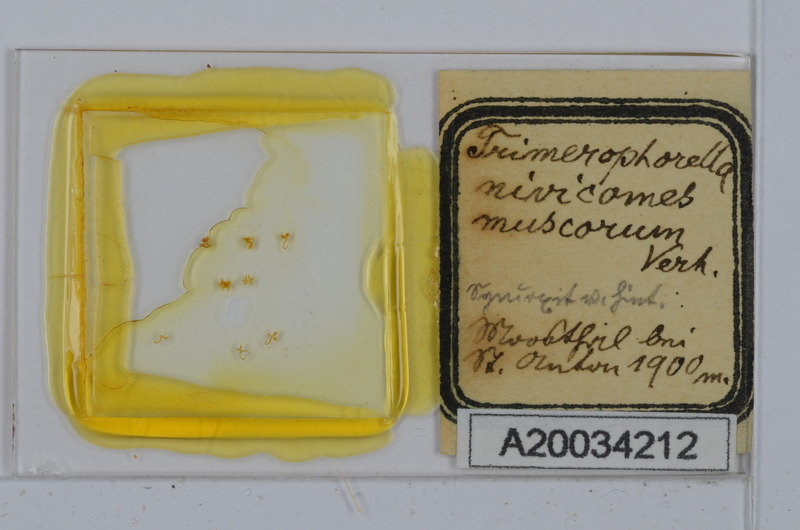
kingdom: Animalia
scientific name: Animalia
